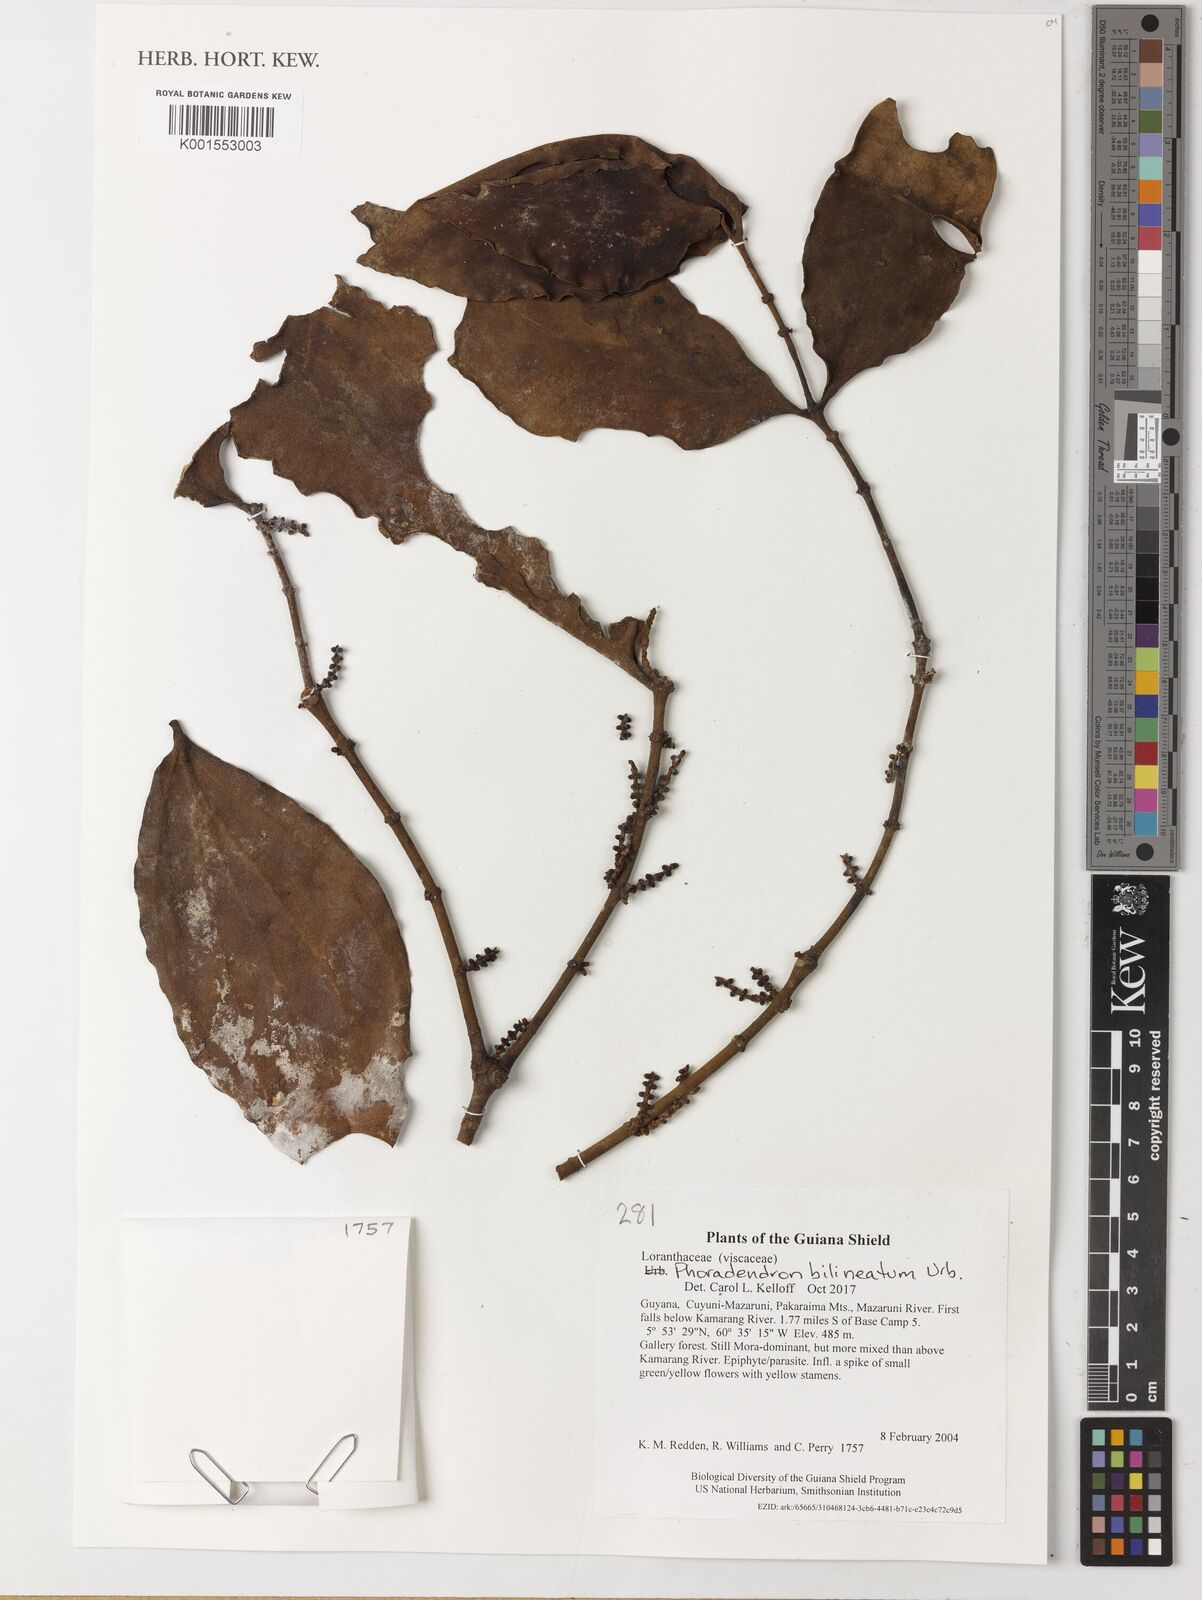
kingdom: Plantae
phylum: Tracheophyta
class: Magnoliopsida
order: Santalales
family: Viscaceae
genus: Phoradendron
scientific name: Phoradendron
